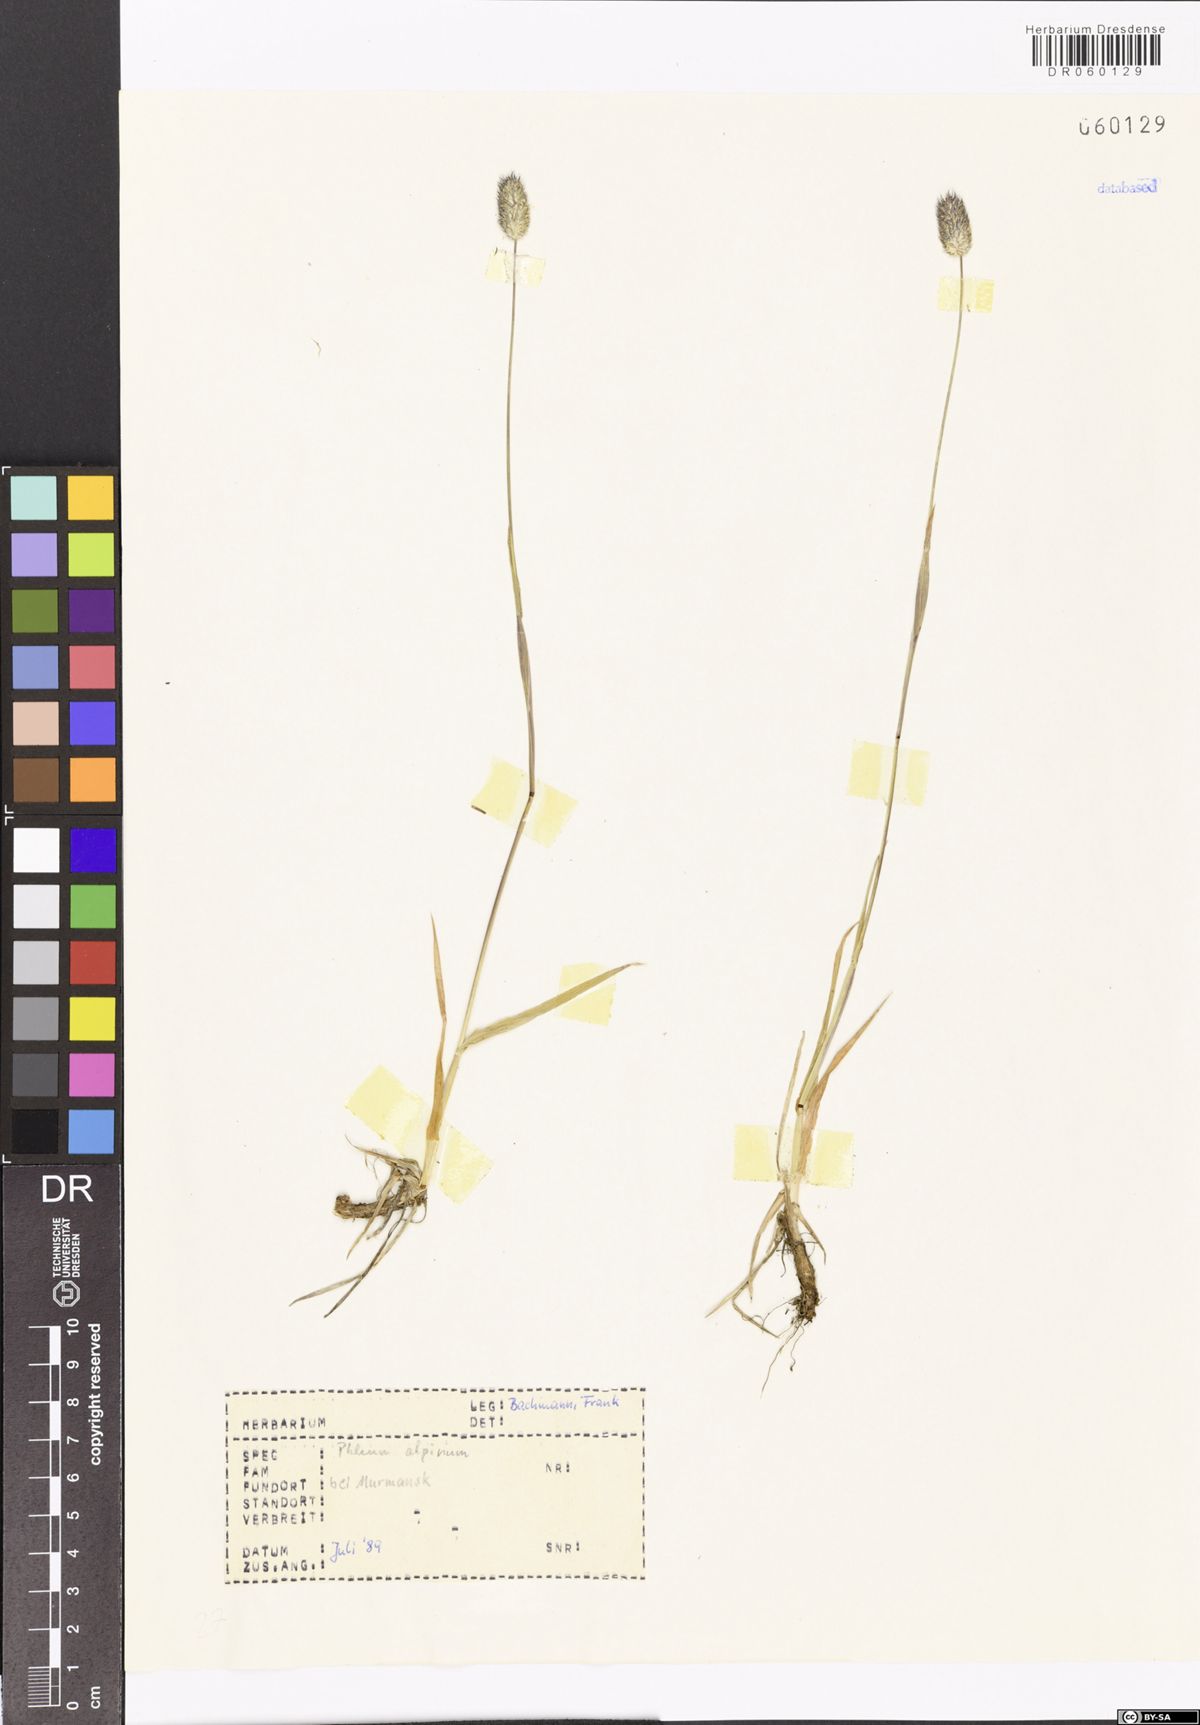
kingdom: Plantae
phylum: Tracheophyta
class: Liliopsida
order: Poales
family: Poaceae
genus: Phleum
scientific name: Phleum alpinum
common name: Alpine cat's-tail
